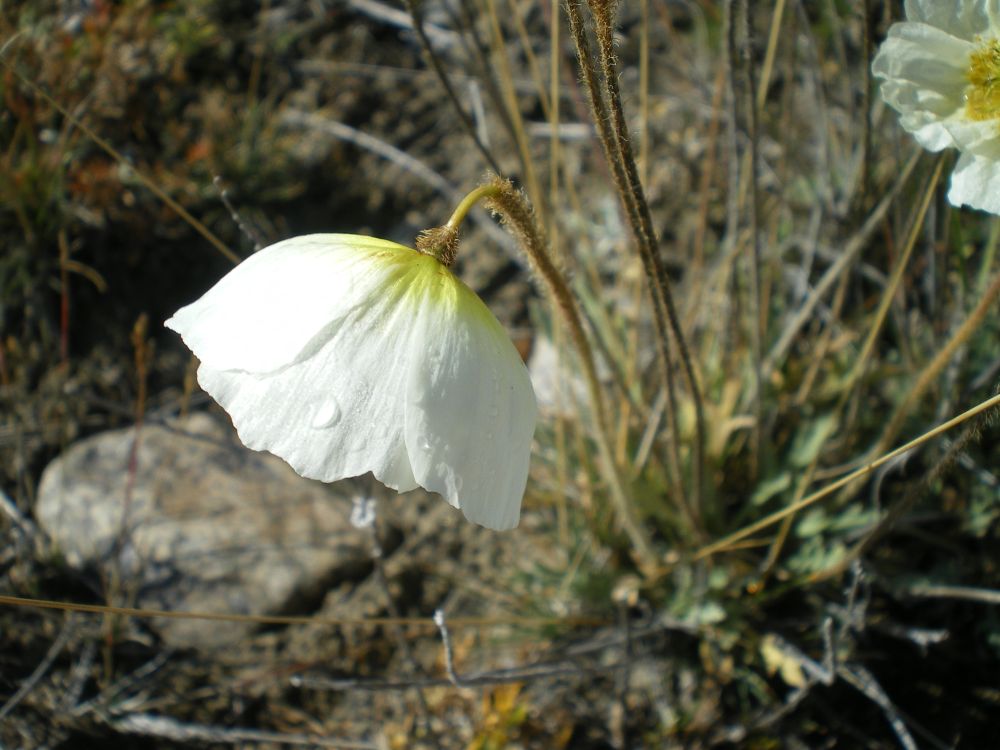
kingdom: Plantae
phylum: Tracheophyta
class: Magnoliopsida
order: Ranunculales
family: Papaveraceae
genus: Papaver
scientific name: Papaver croceum
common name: Siberian poppy
